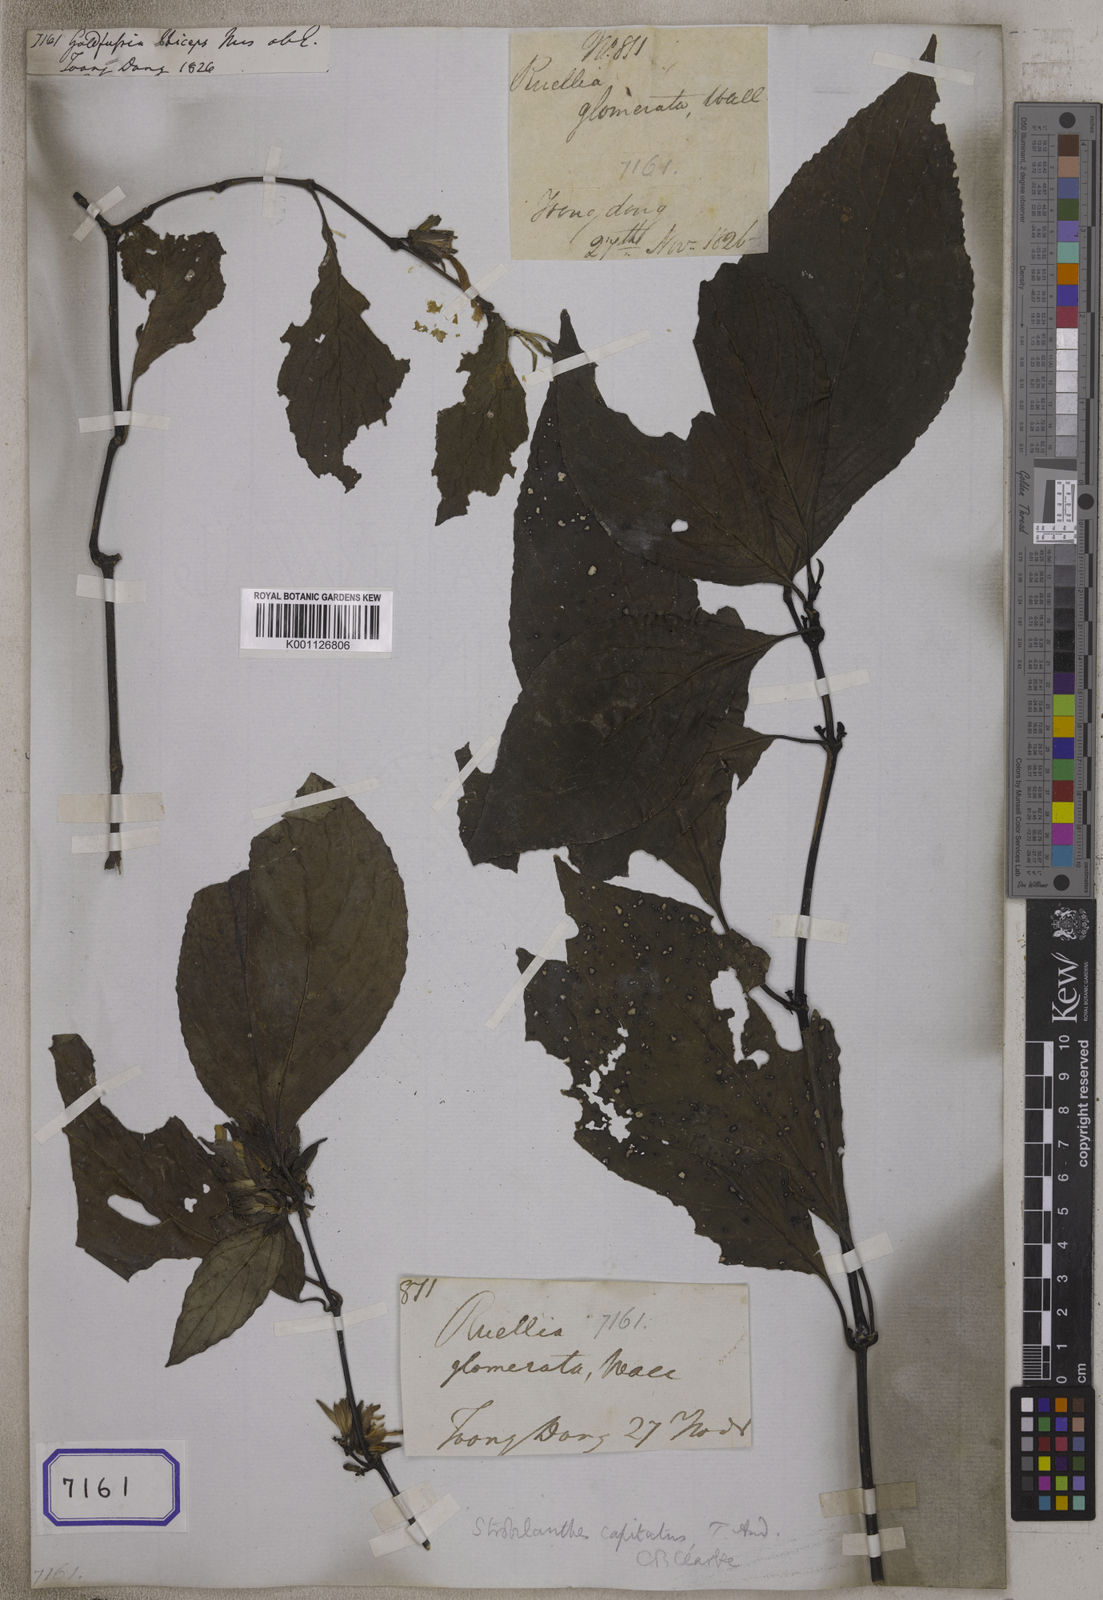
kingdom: Plantae
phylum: Tracheophyta
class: Magnoliopsida
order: Lamiales
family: Acanthaceae
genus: Strobilanthes
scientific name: Strobilanthes capitata
